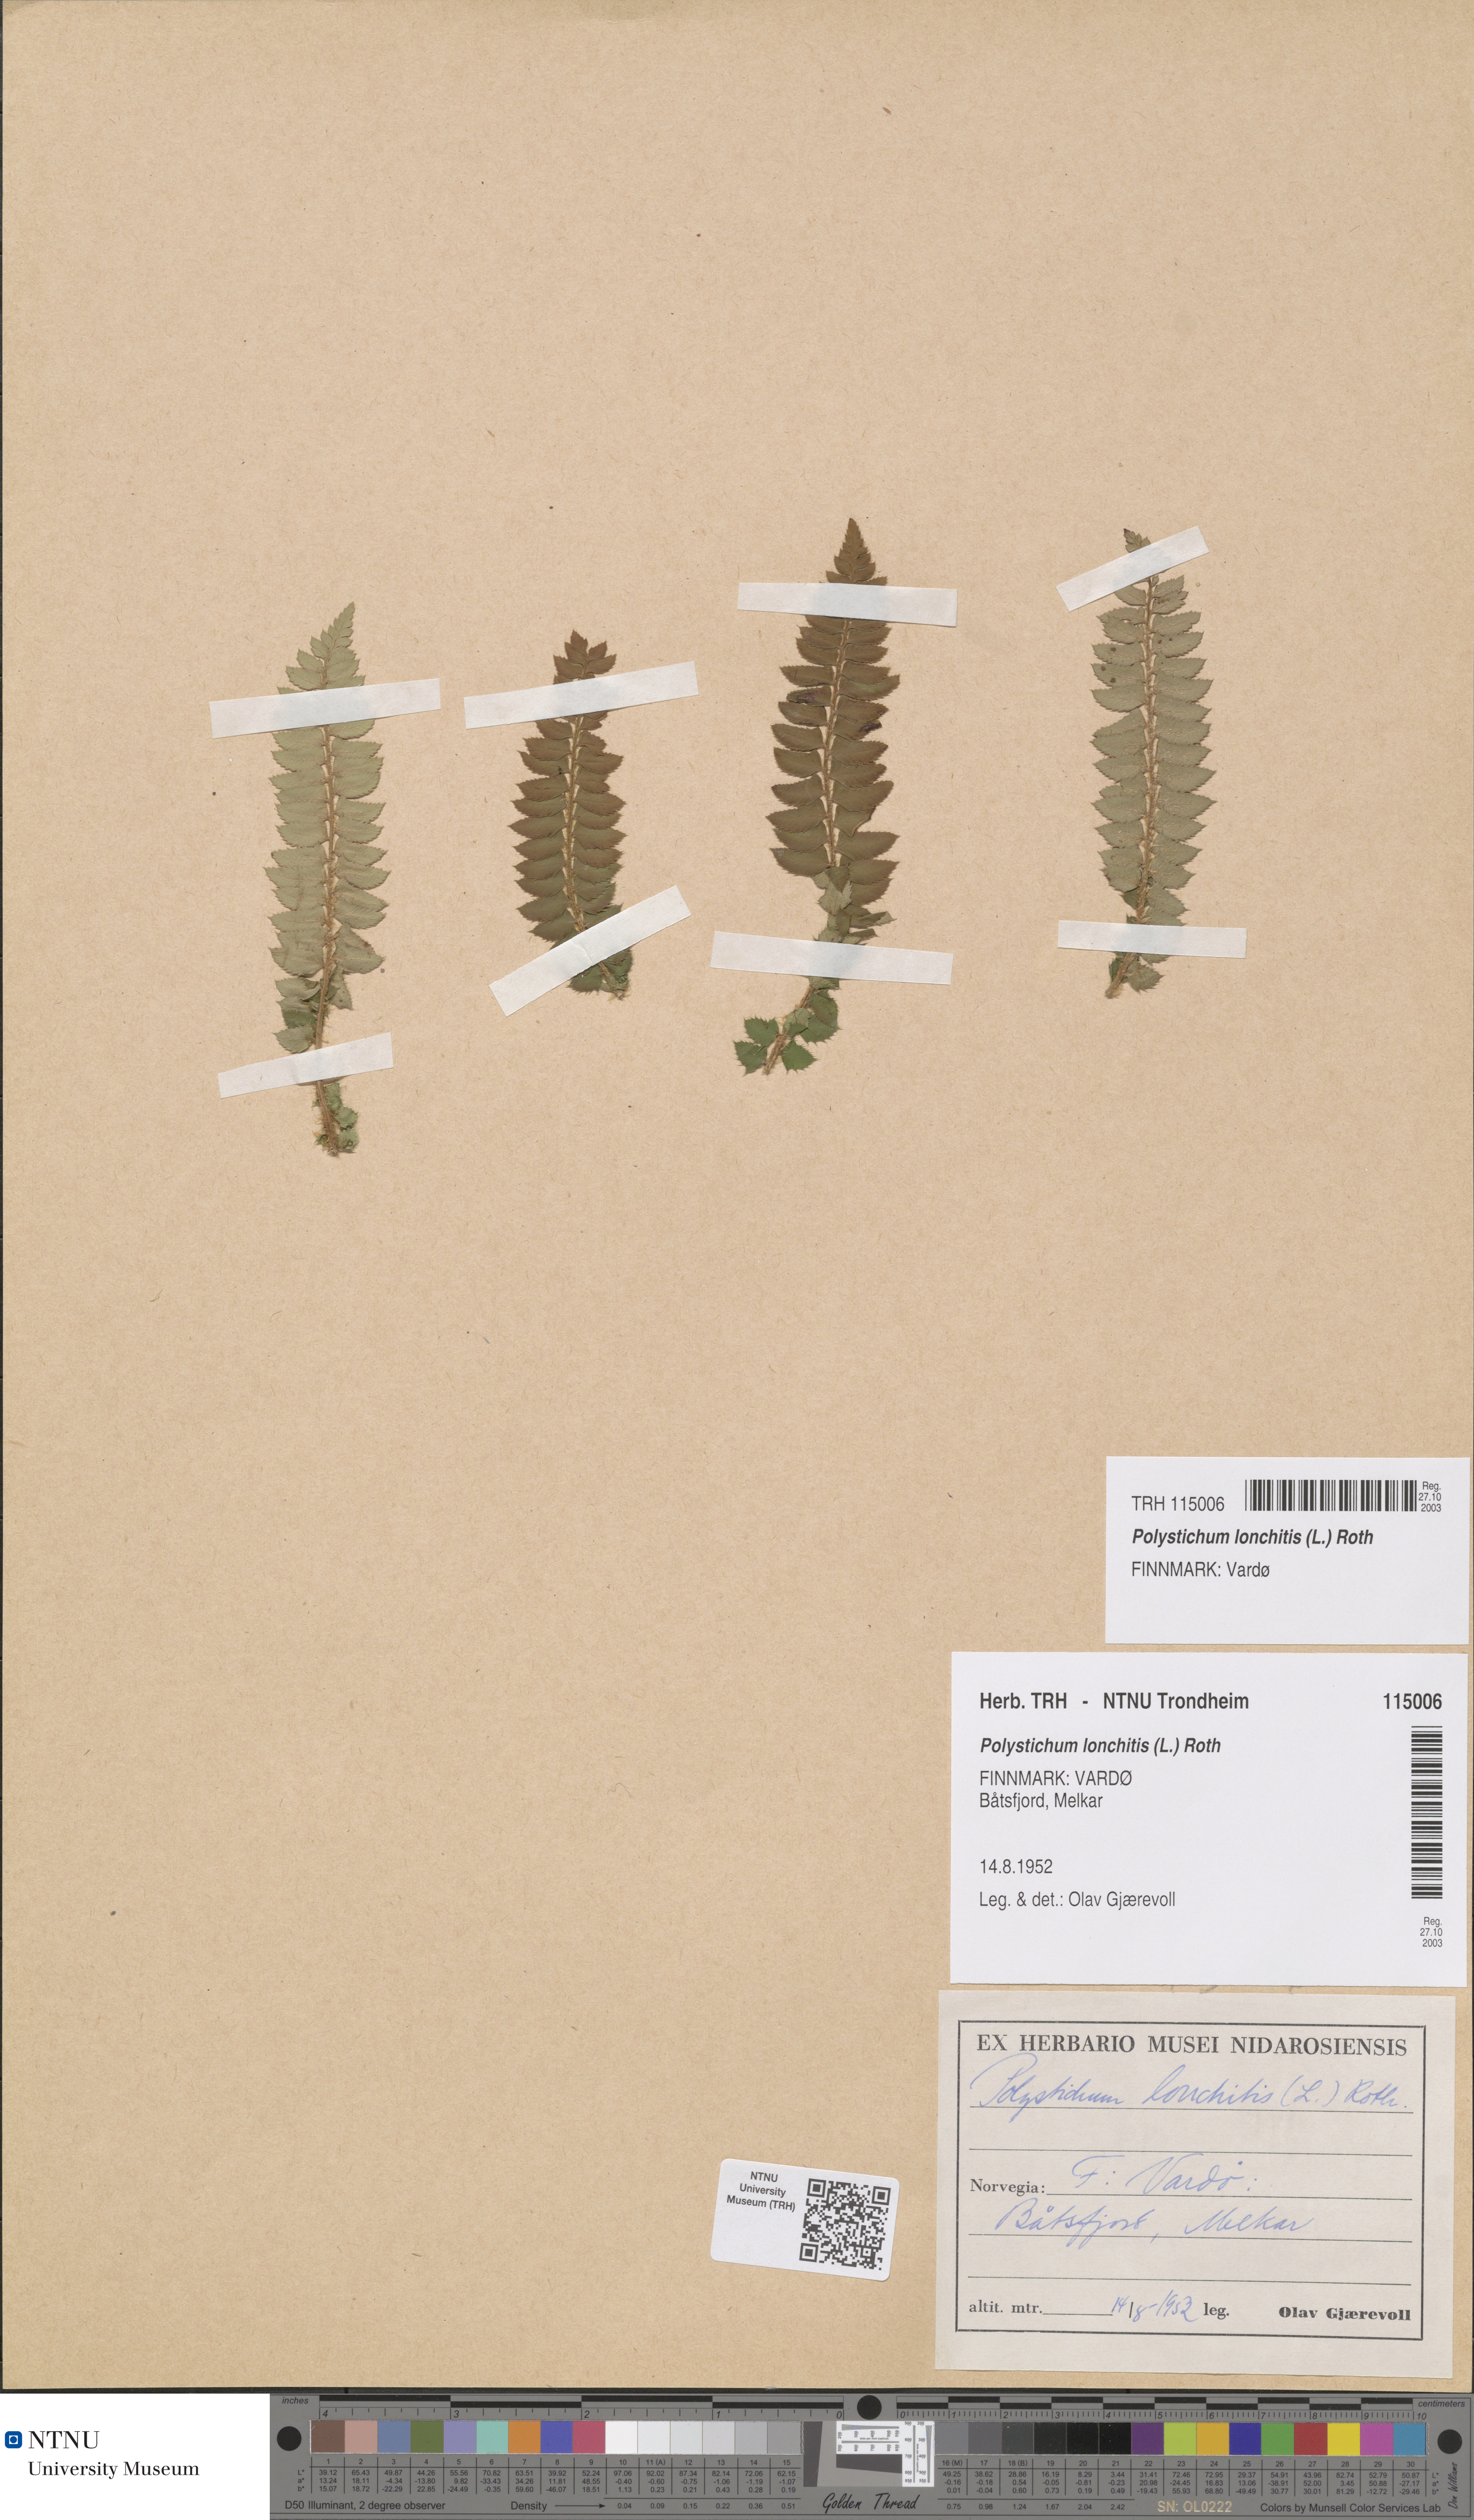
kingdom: Plantae
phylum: Tracheophyta
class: Polypodiopsida
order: Polypodiales
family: Dryopteridaceae
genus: Polystichum
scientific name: Polystichum lonchitis
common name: Holly fern
